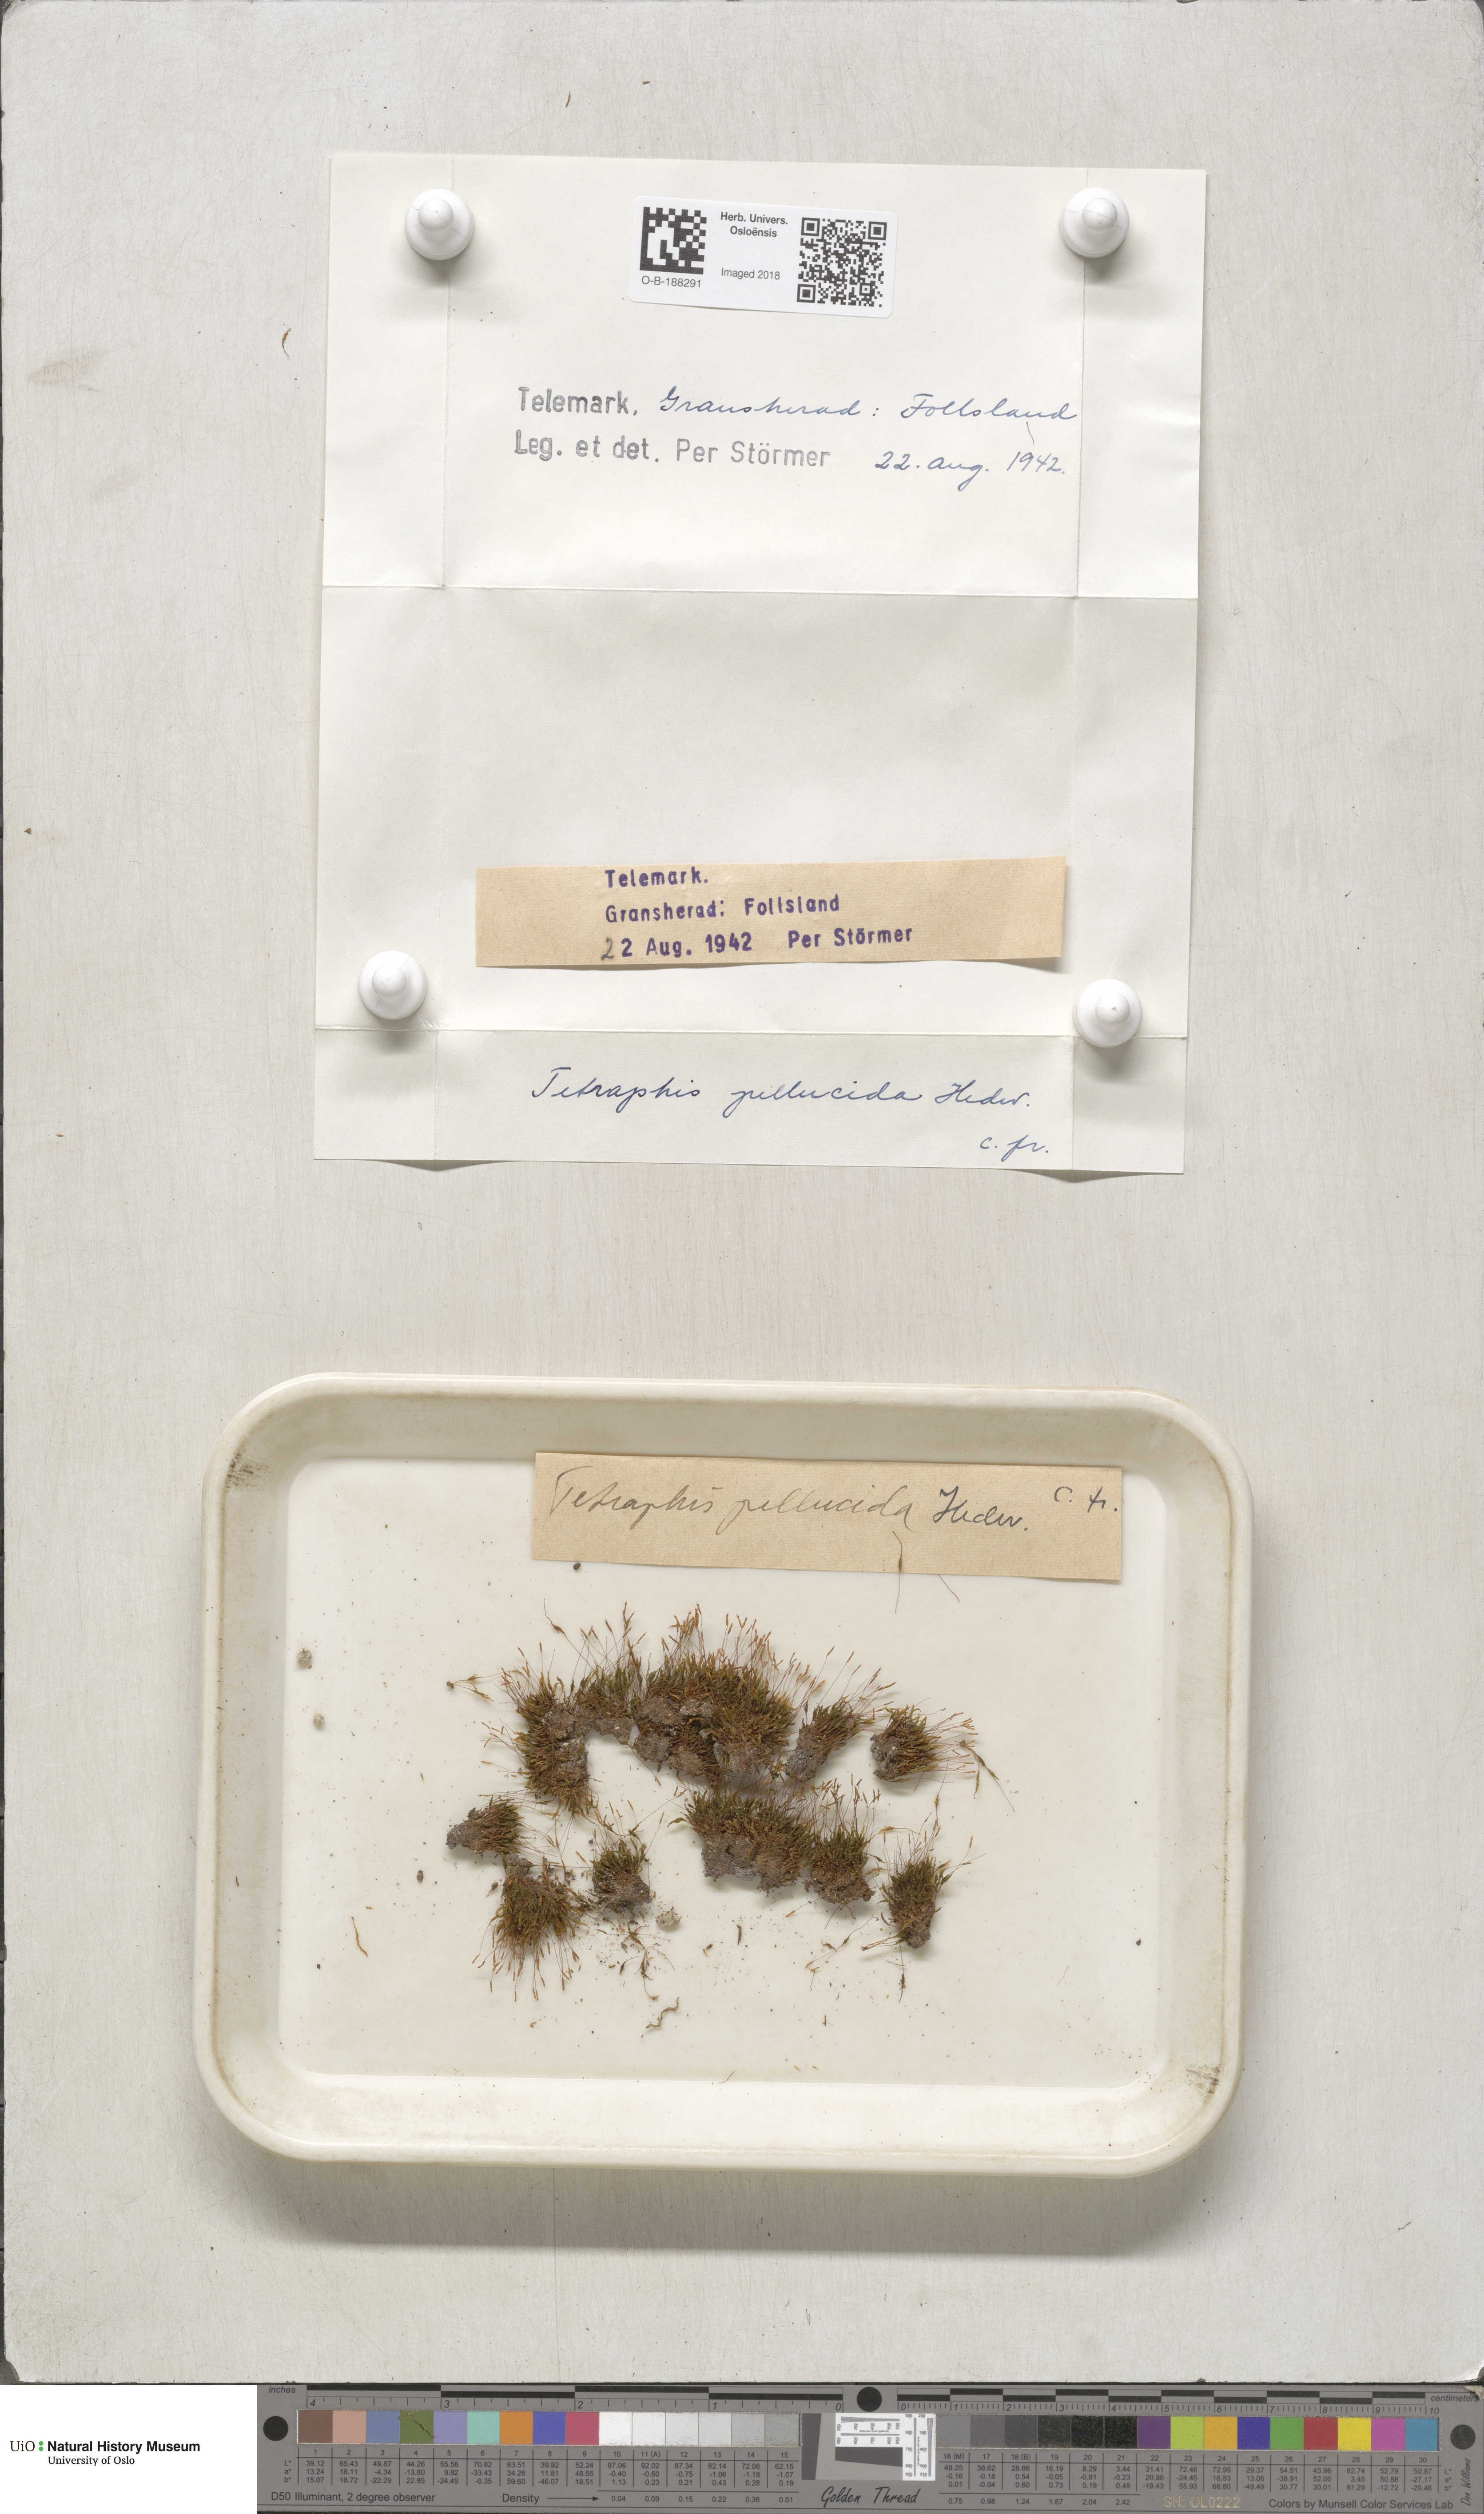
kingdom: Plantae
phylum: Bryophyta
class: Polytrichopsida
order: Tetraphidales
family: Tetraphidaceae
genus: Tetraphis
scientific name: Tetraphis pellucida
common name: Common four-toothed moss
